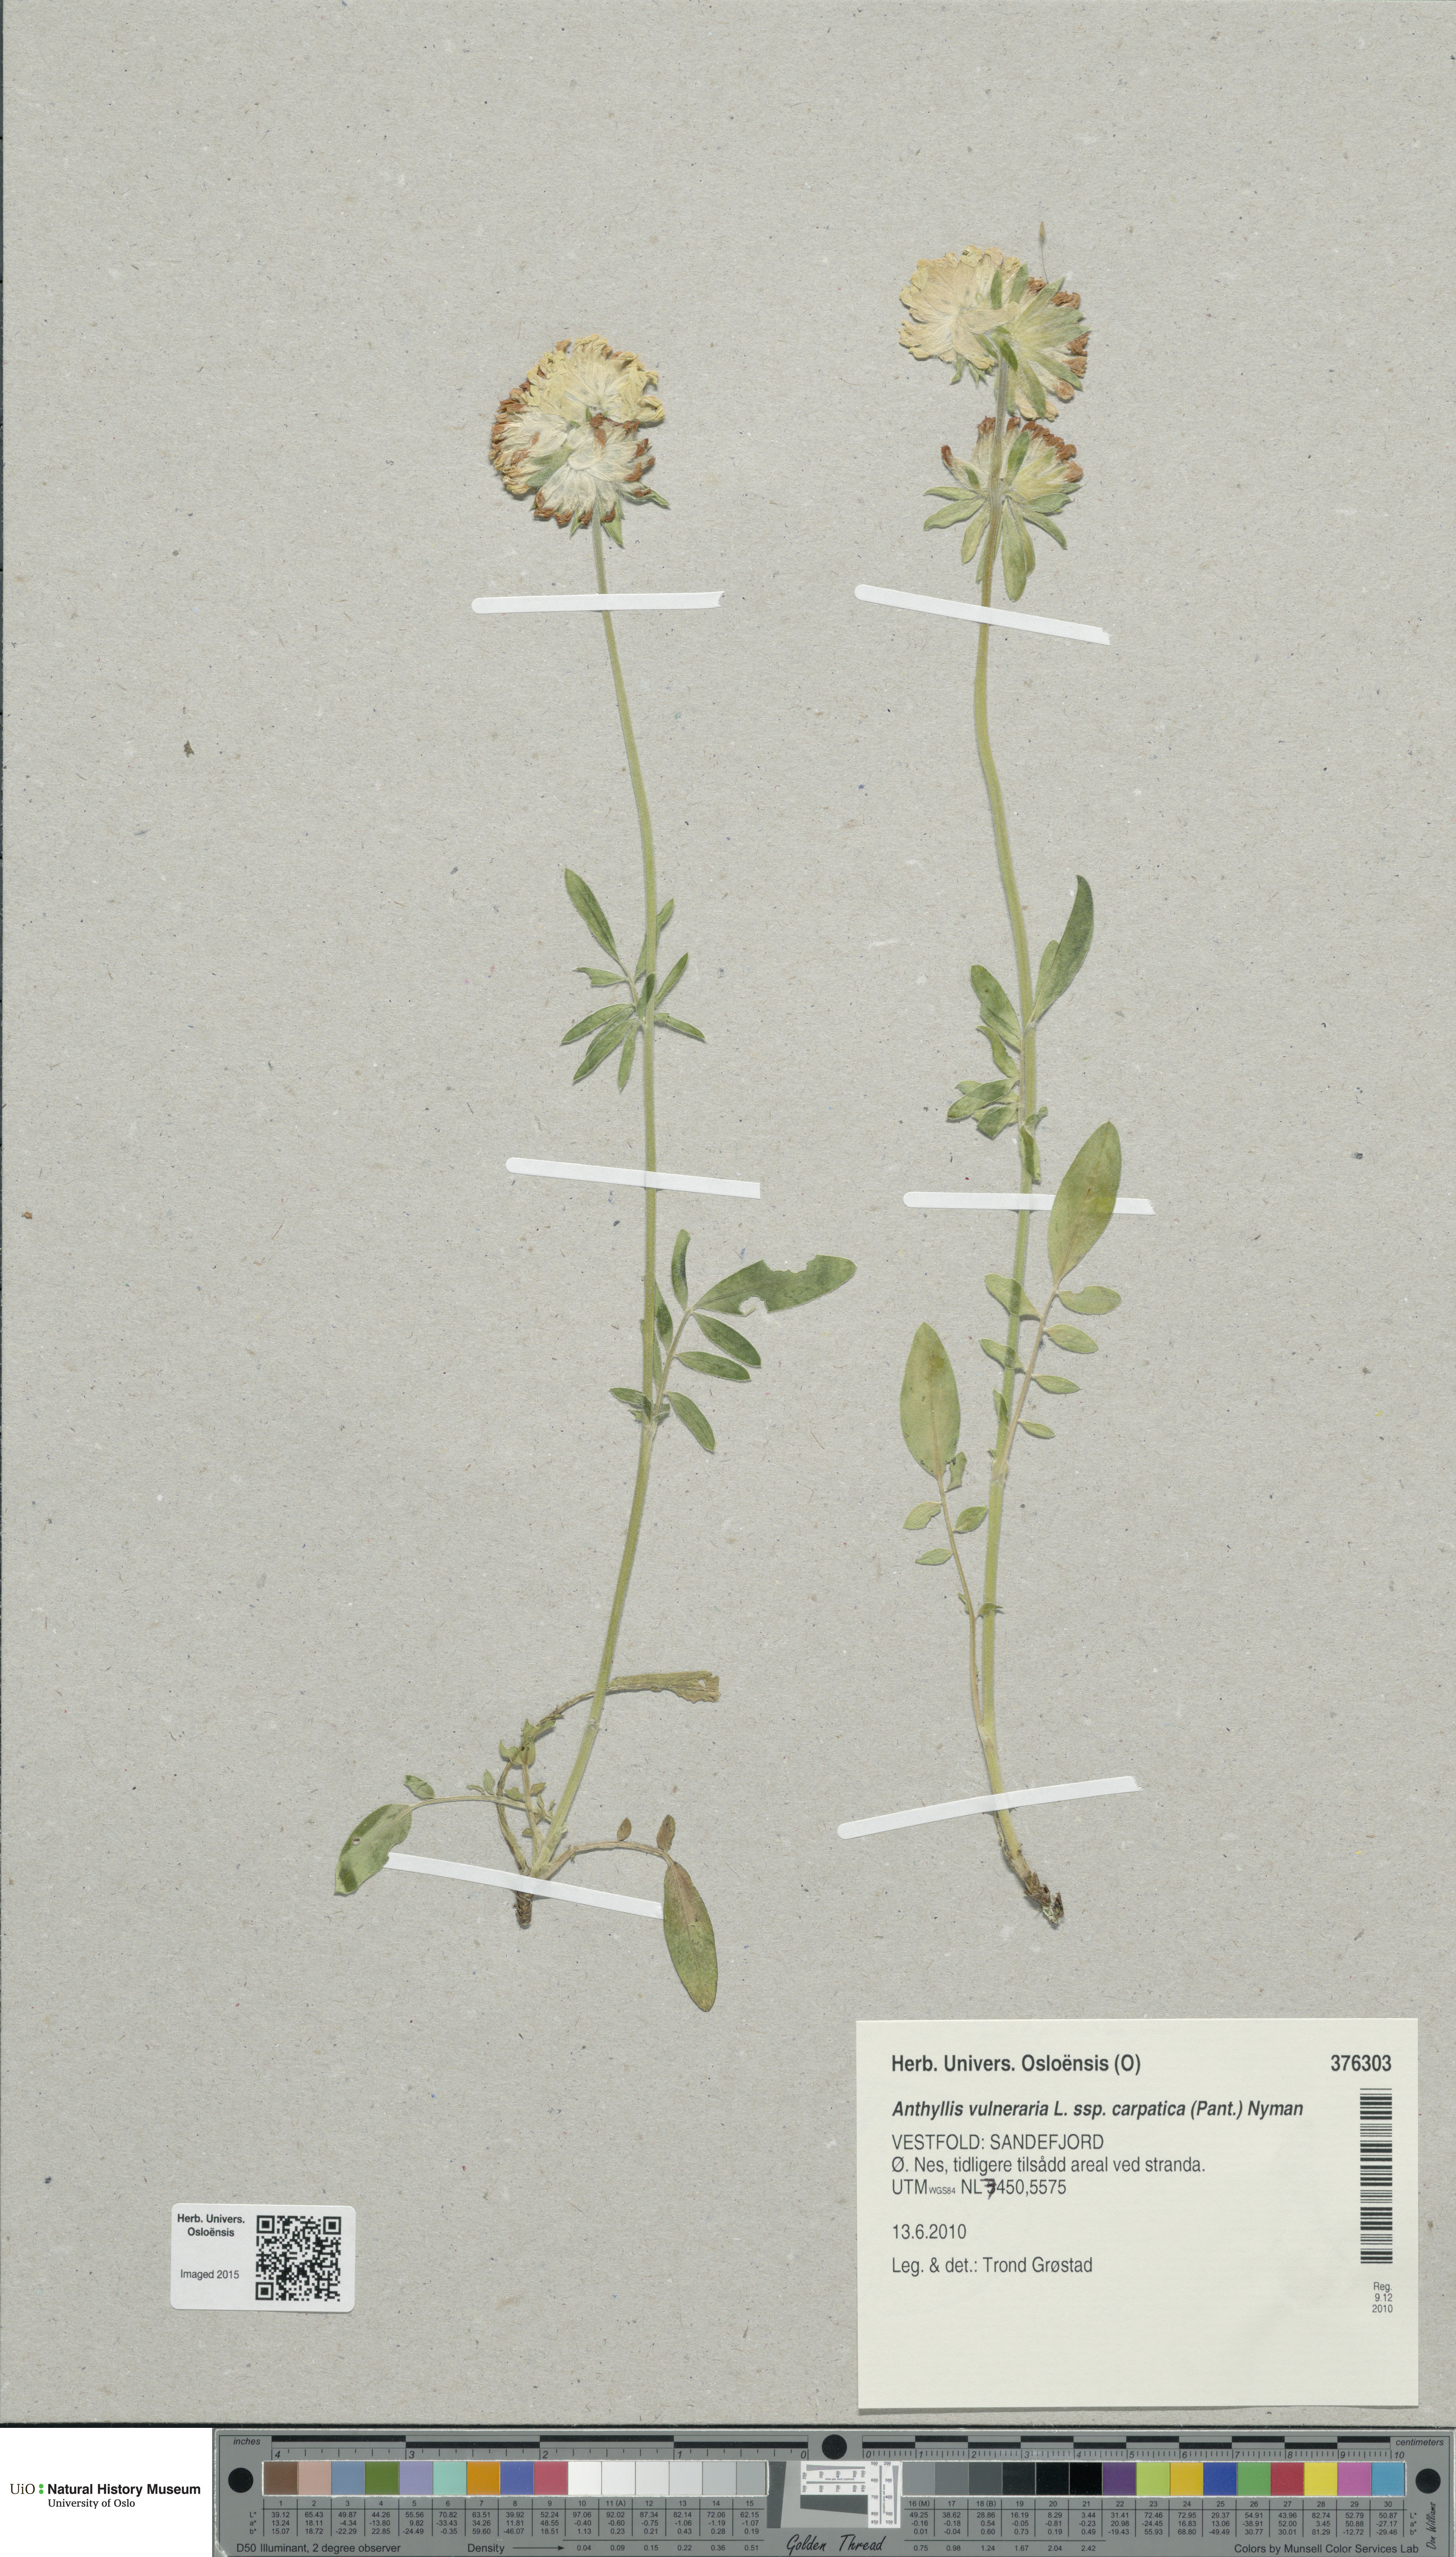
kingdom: Plantae
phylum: Tracheophyta
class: Magnoliopsida
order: Fabales
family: Fabaceae
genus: Anthyllis
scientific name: Anthyllis vulneraria
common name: Kidney vetch
